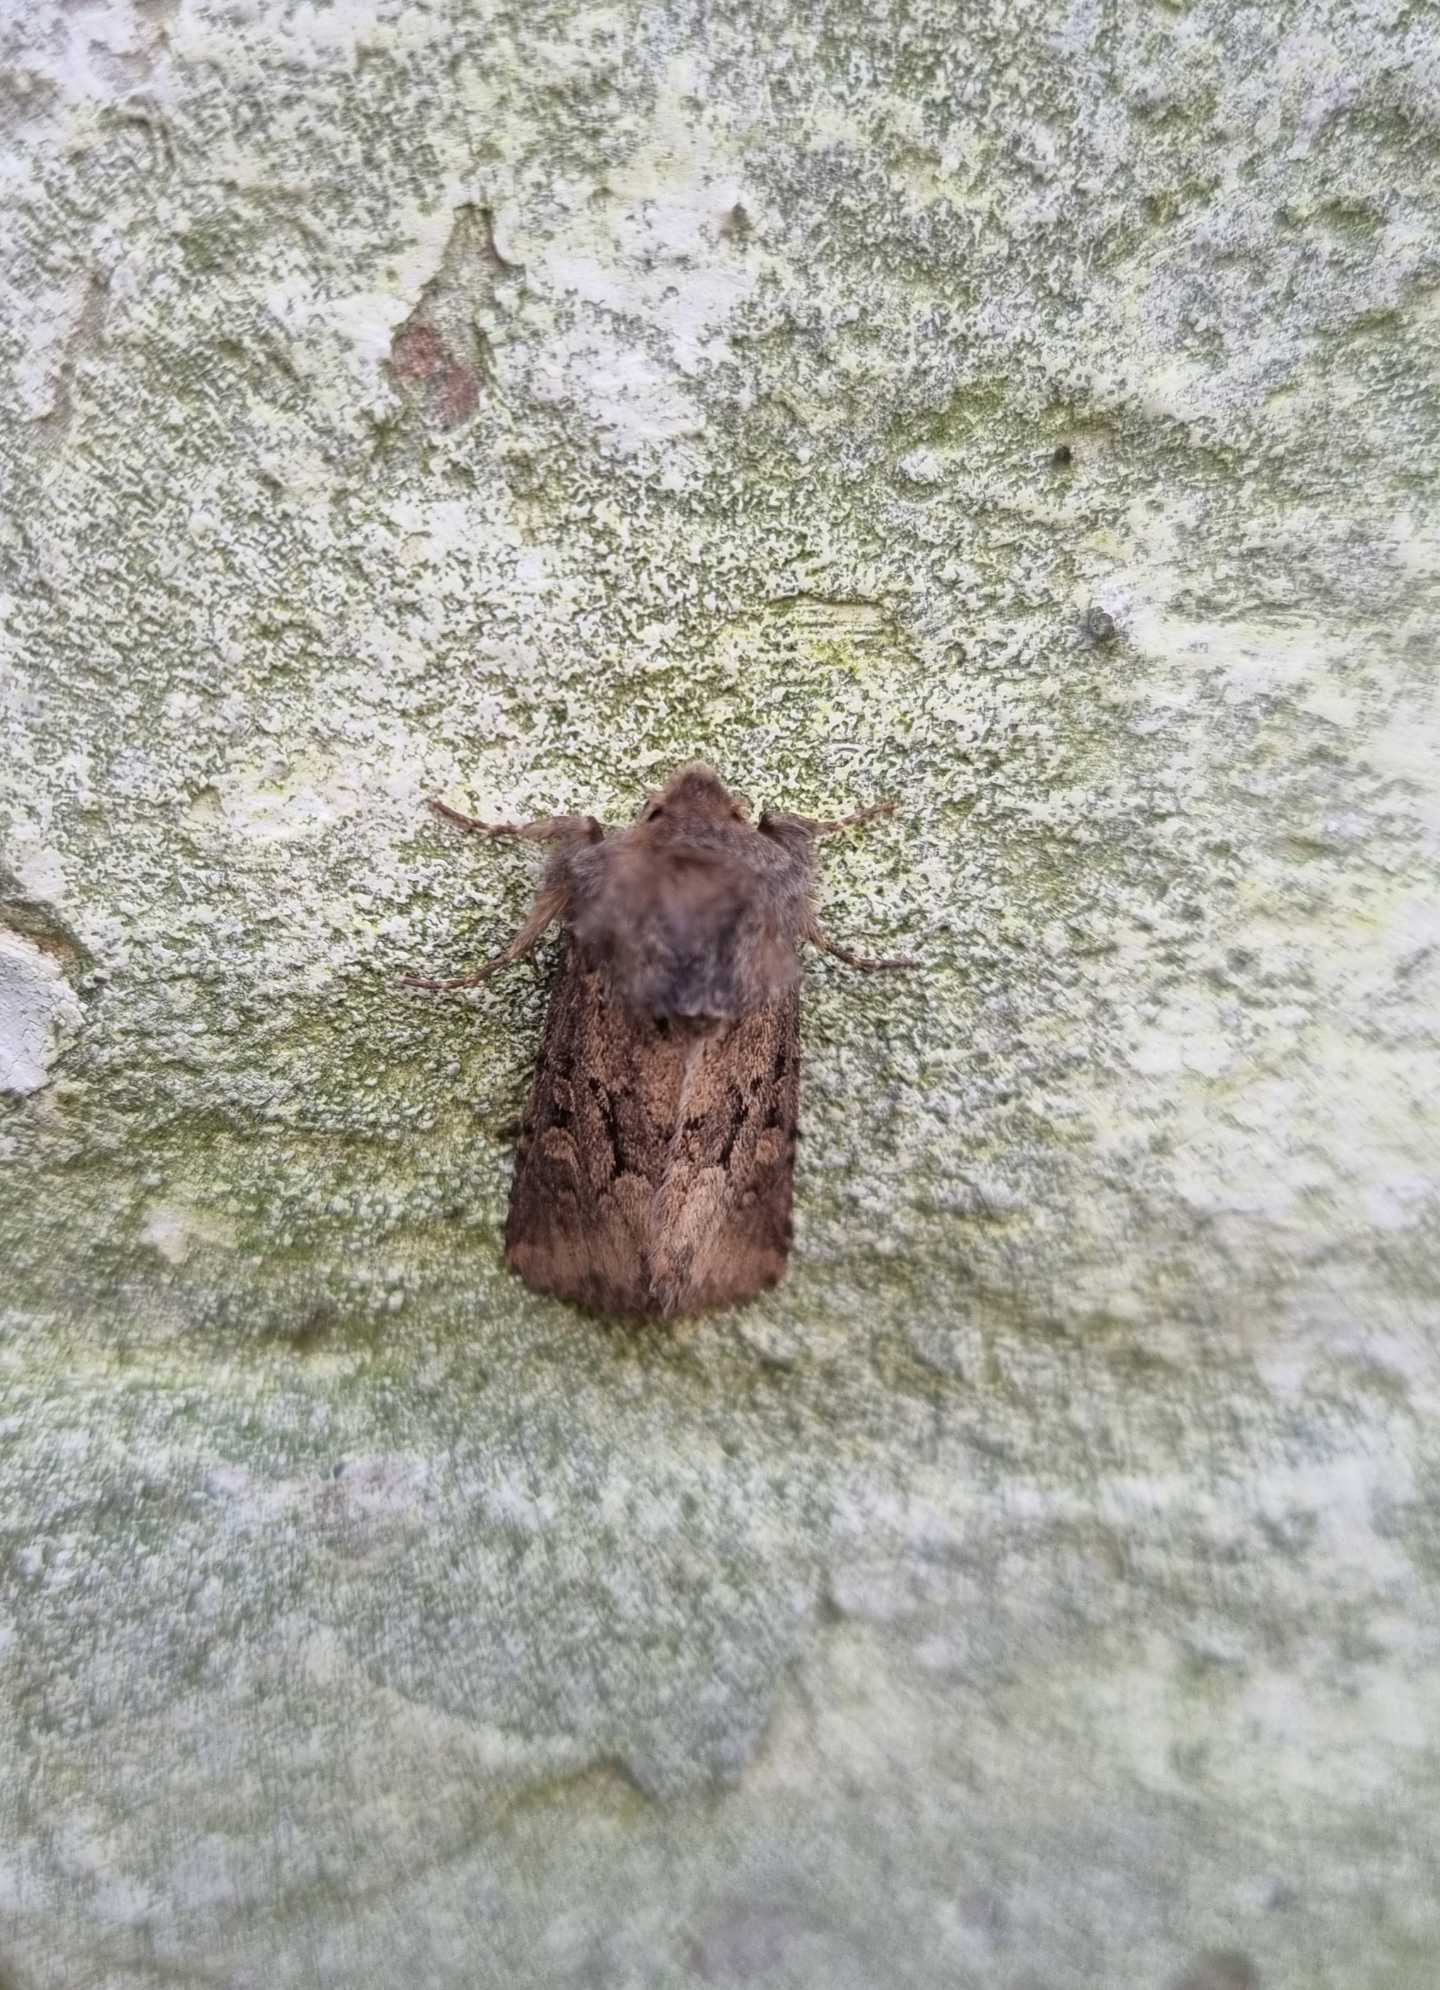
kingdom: Animalia
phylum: Arthropoda
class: Insecta
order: Lepidoptera
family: Noctuidae
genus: Luperina
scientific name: Luperina testacea
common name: Frøgræsugle
